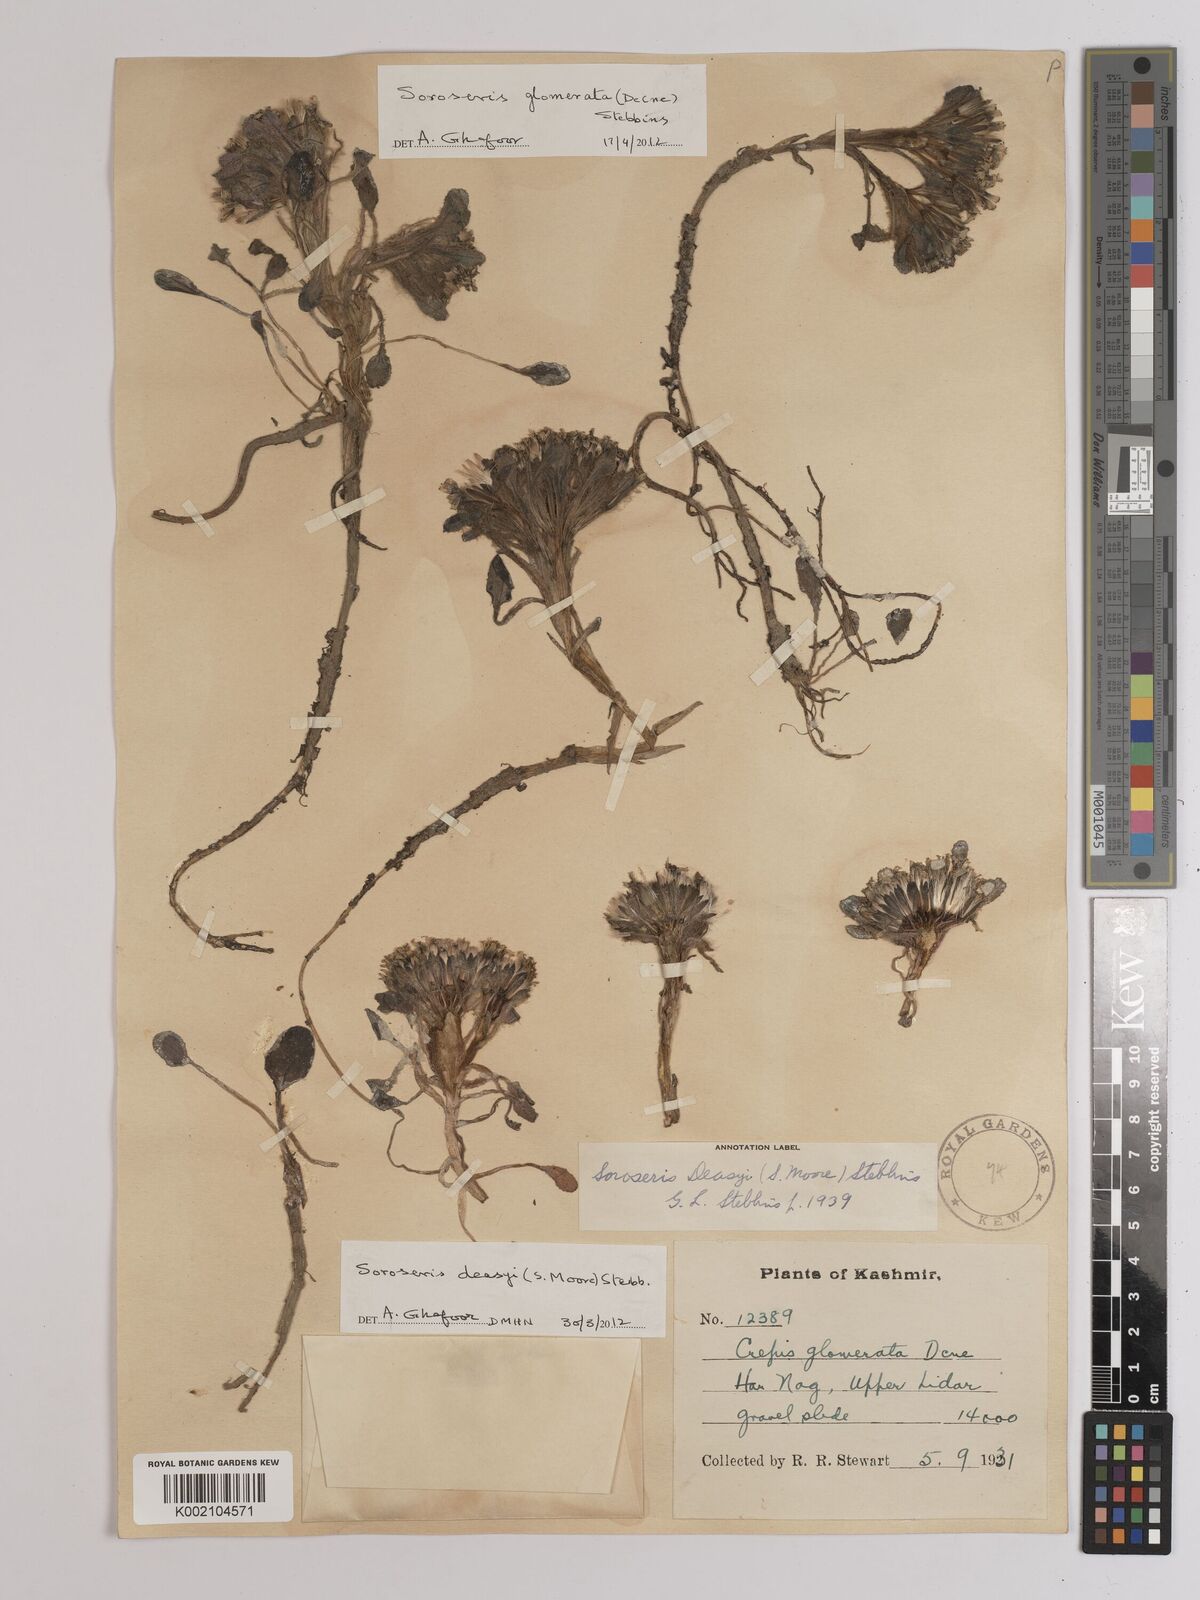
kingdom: Plantae
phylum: Tracheophyta
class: Magnoliopsida
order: Asterales
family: Asteraceae
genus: Soroseris
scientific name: Soroseris deasyi
